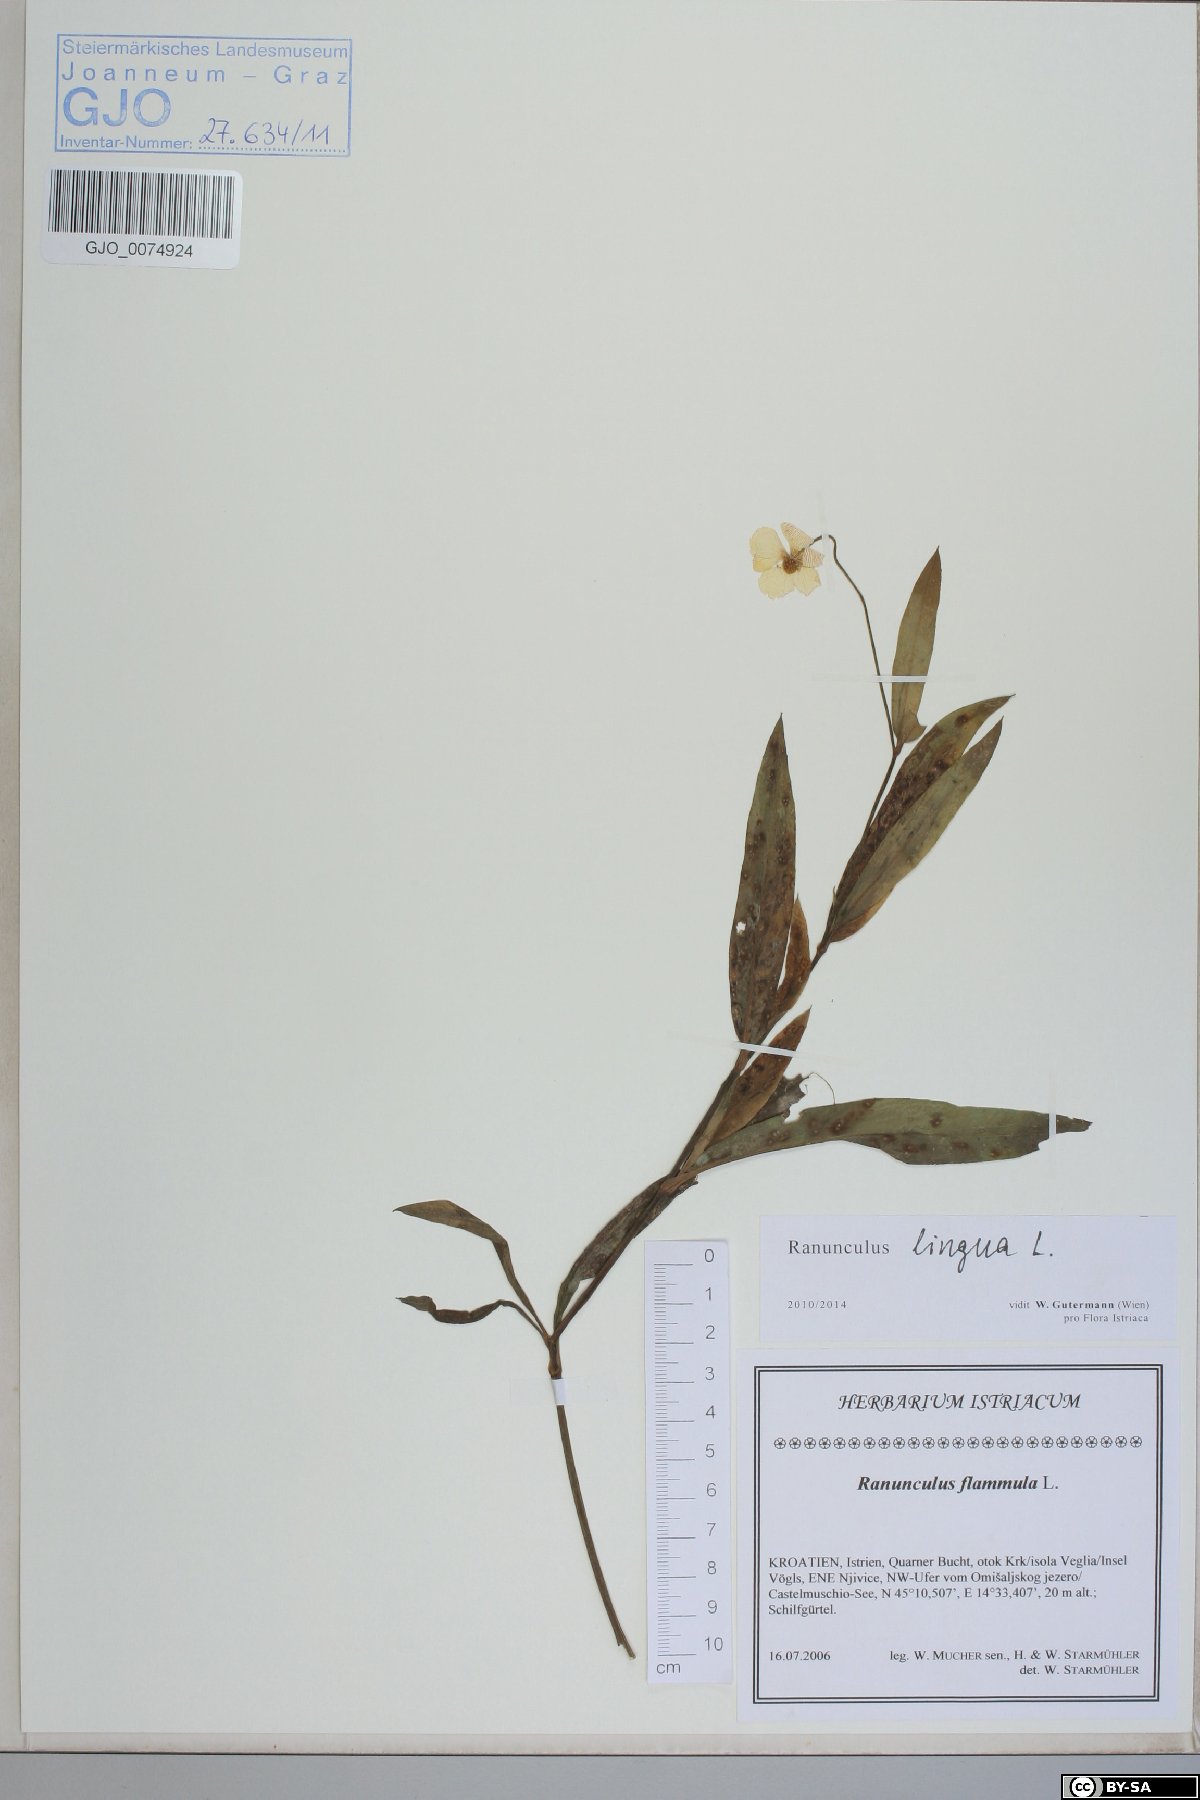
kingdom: Plantae
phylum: Tracheophyta
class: Magnoliopsida
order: Ranunculales
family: Ranunculaceae
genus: Ranunculus
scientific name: Ranunculus lingua
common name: Greater spearwort
